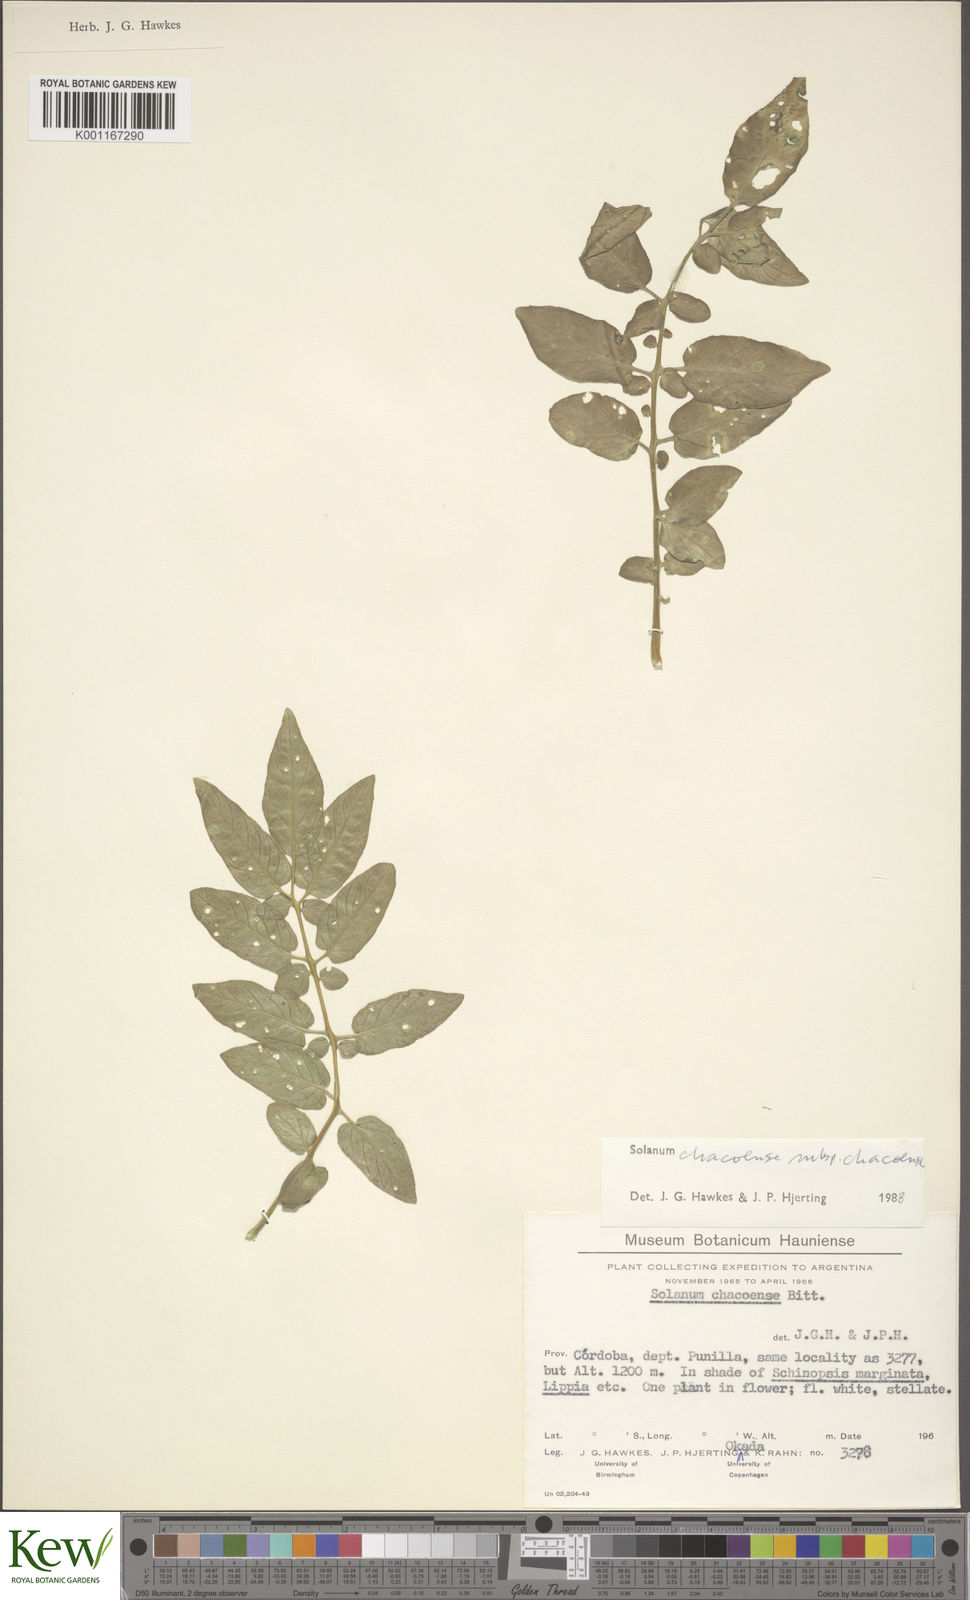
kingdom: Plantae
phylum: Tracheophyta
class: Magnoliopsida
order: Solanales
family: Solanaceae
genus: Solanum
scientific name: Solanum
